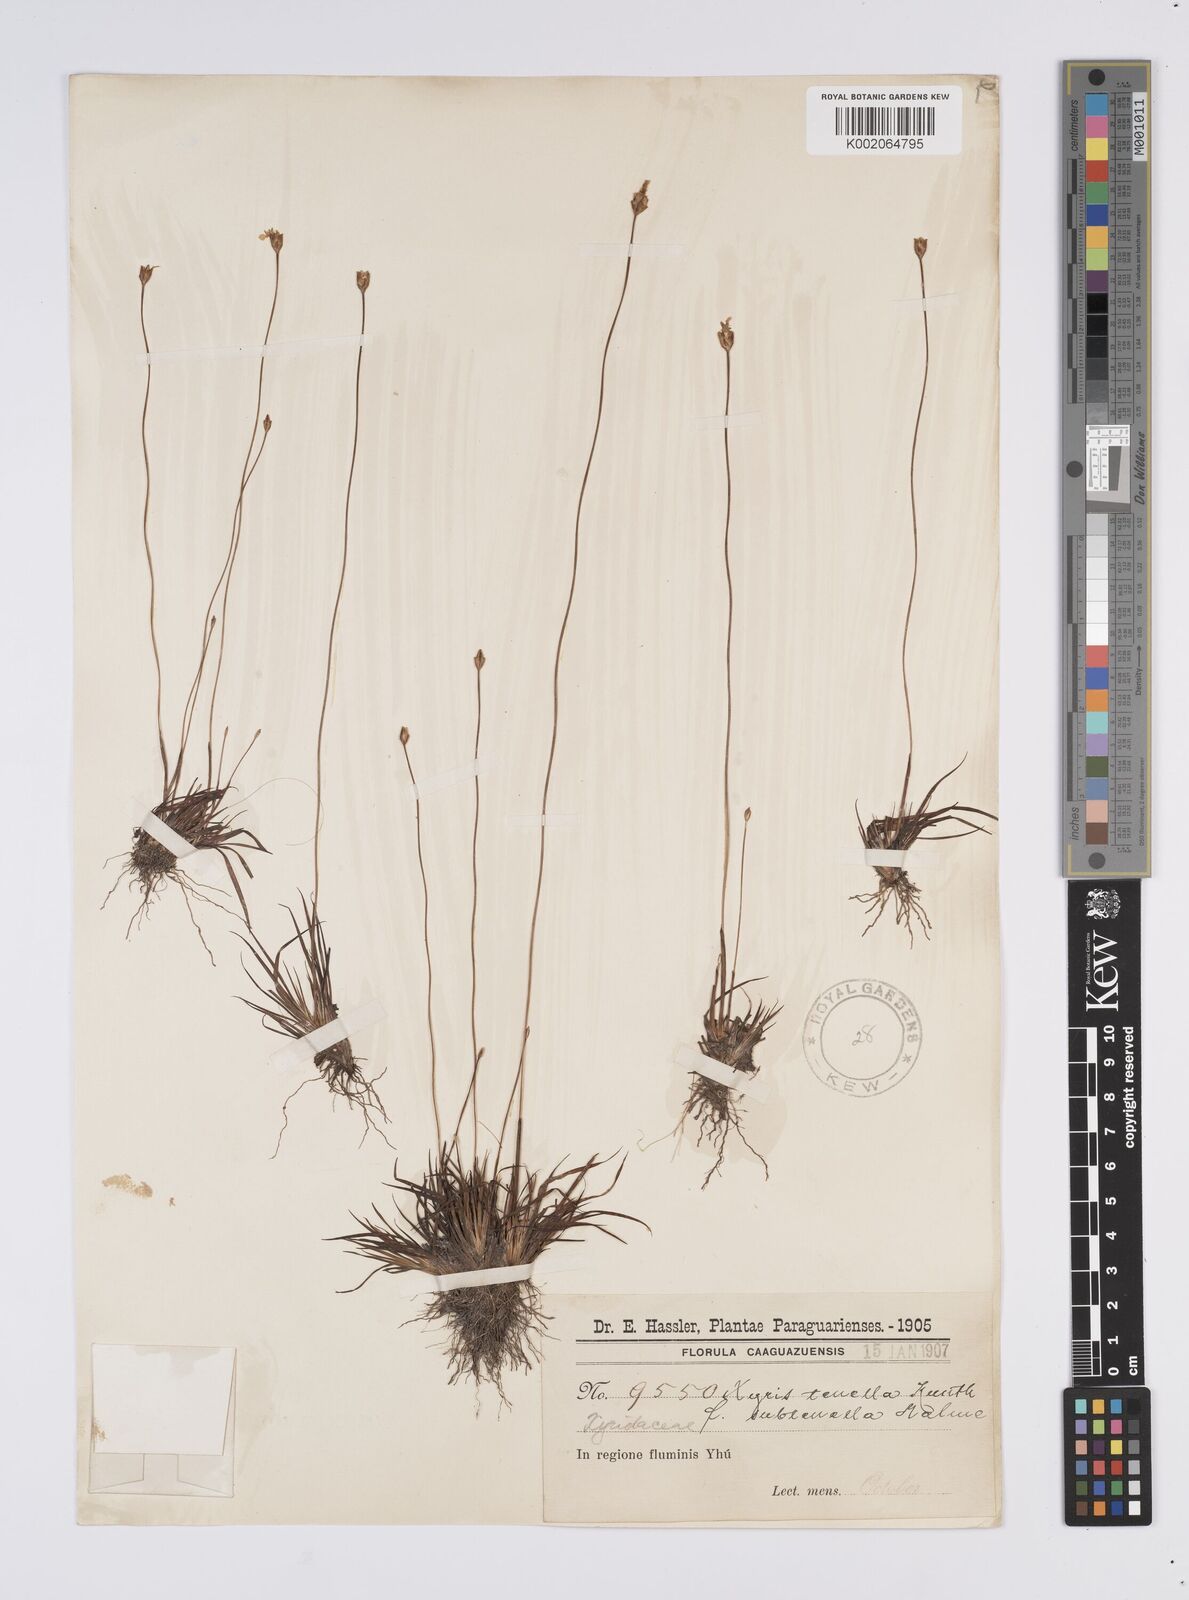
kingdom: Plantae
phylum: Tracheophyta
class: Liliopsida
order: Poales
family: Xyridaceae
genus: Xyris
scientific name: Xyris tenella
